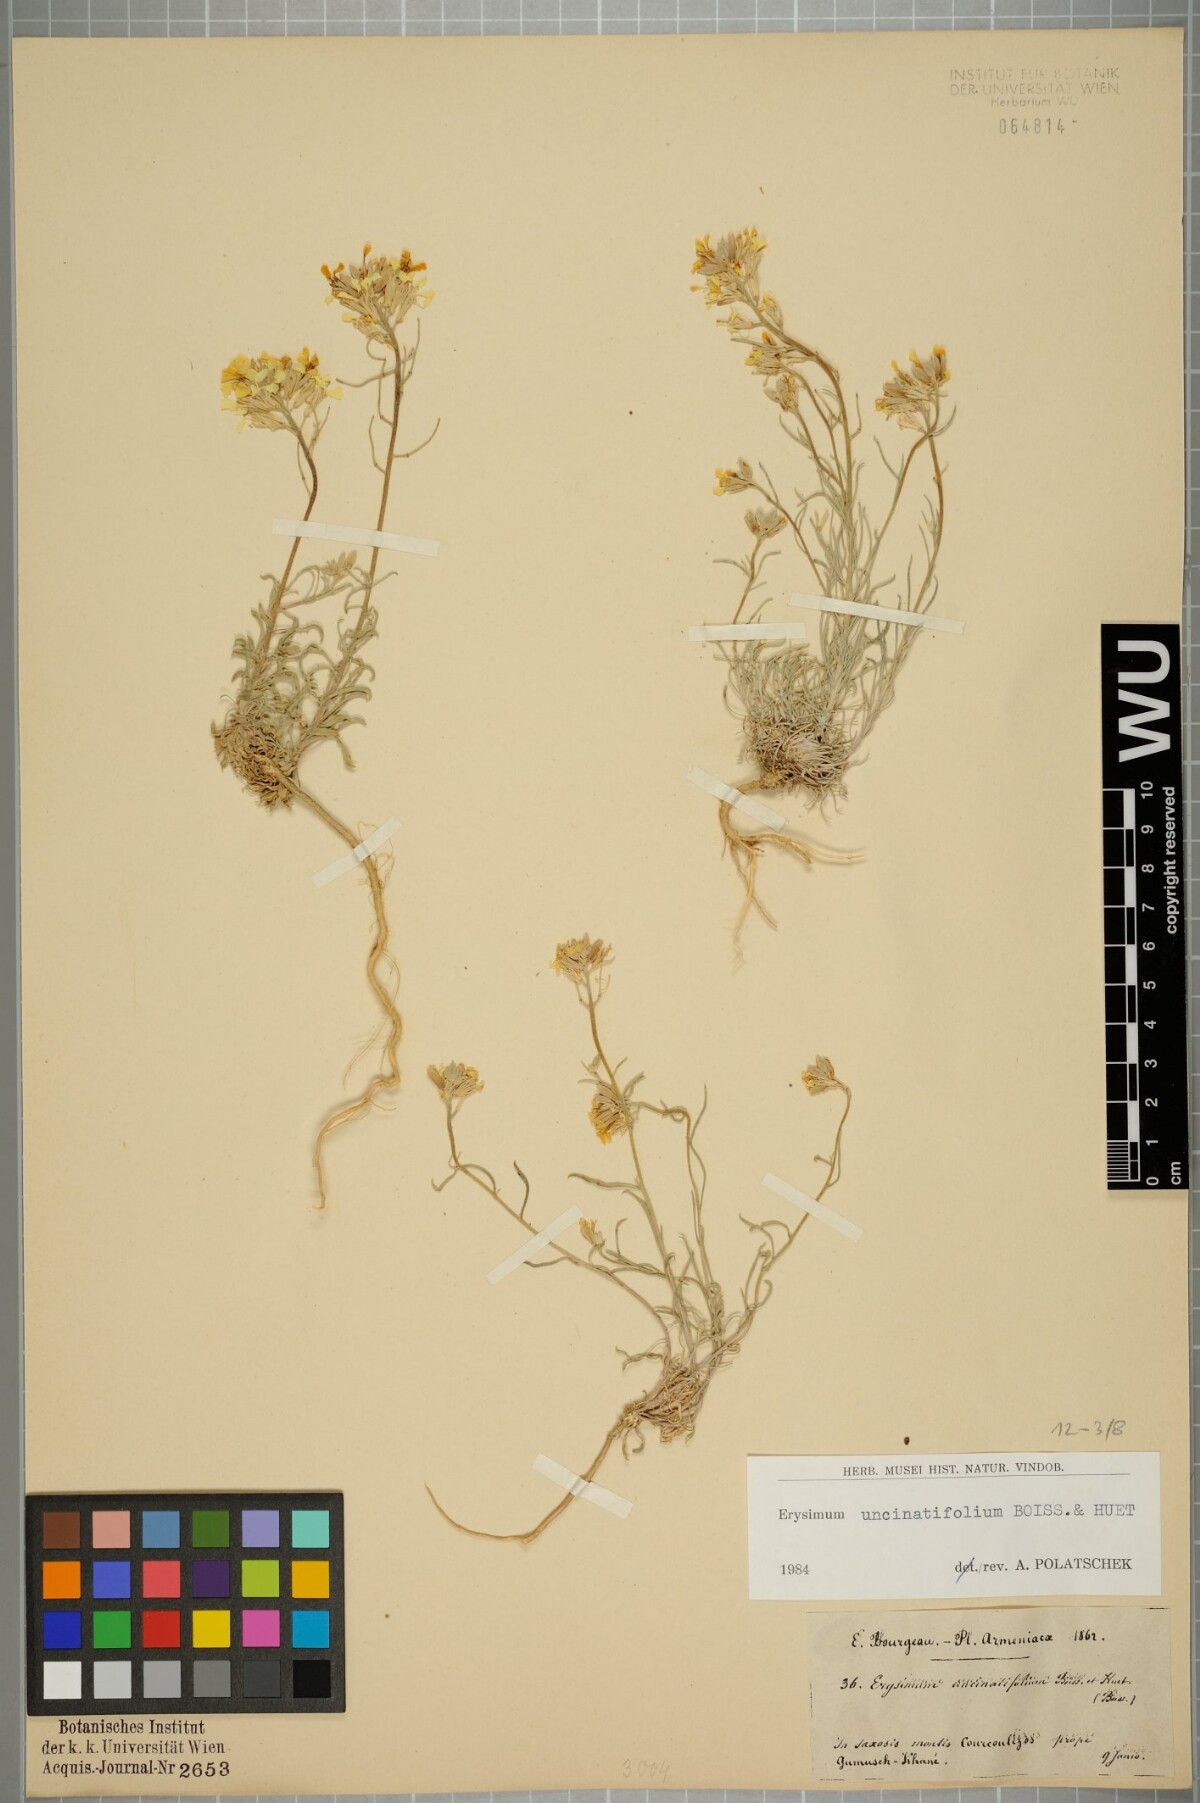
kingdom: Plantae
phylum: Tracheophyta
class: Magnoliopsida
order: Brassicales
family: Brassicaceae
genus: Erysimum
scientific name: Erysimum uncinatifolium
